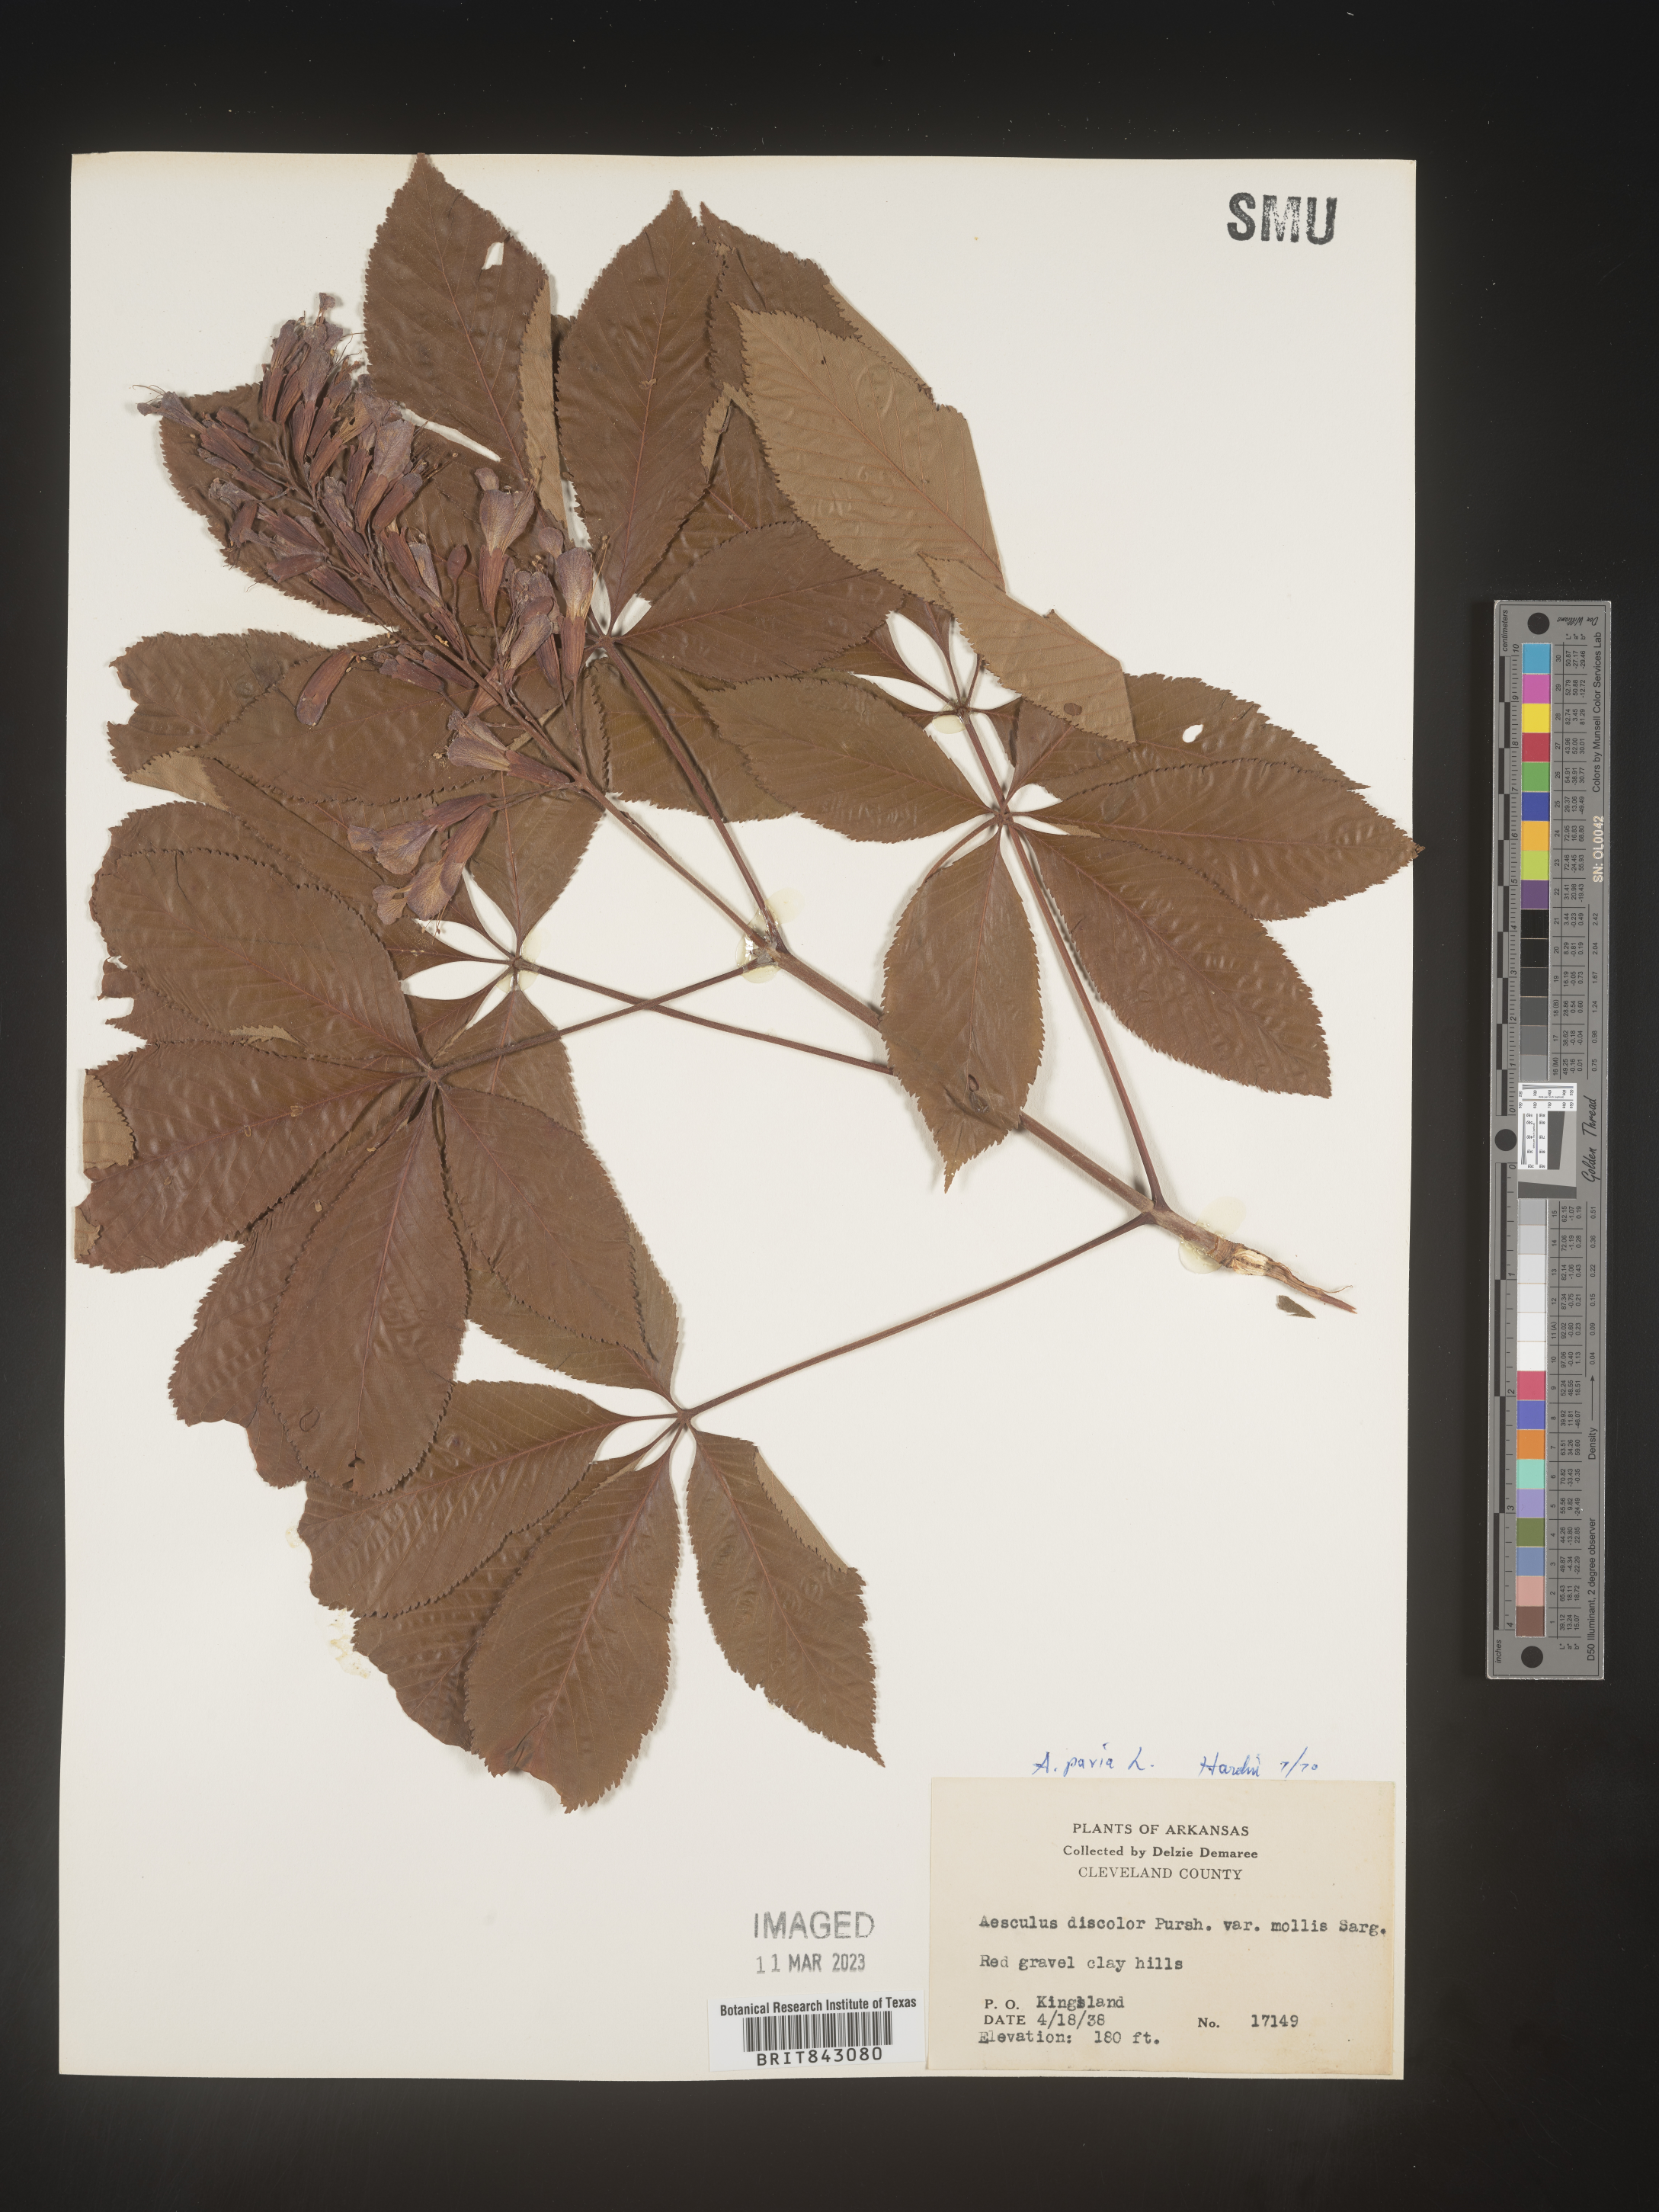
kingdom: Plantae
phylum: Tracheophyta
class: Magnoliopsida
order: Sapindales
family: Sapindaceae
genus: Aesculus
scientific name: Aesculus pavia
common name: Red buckeye
